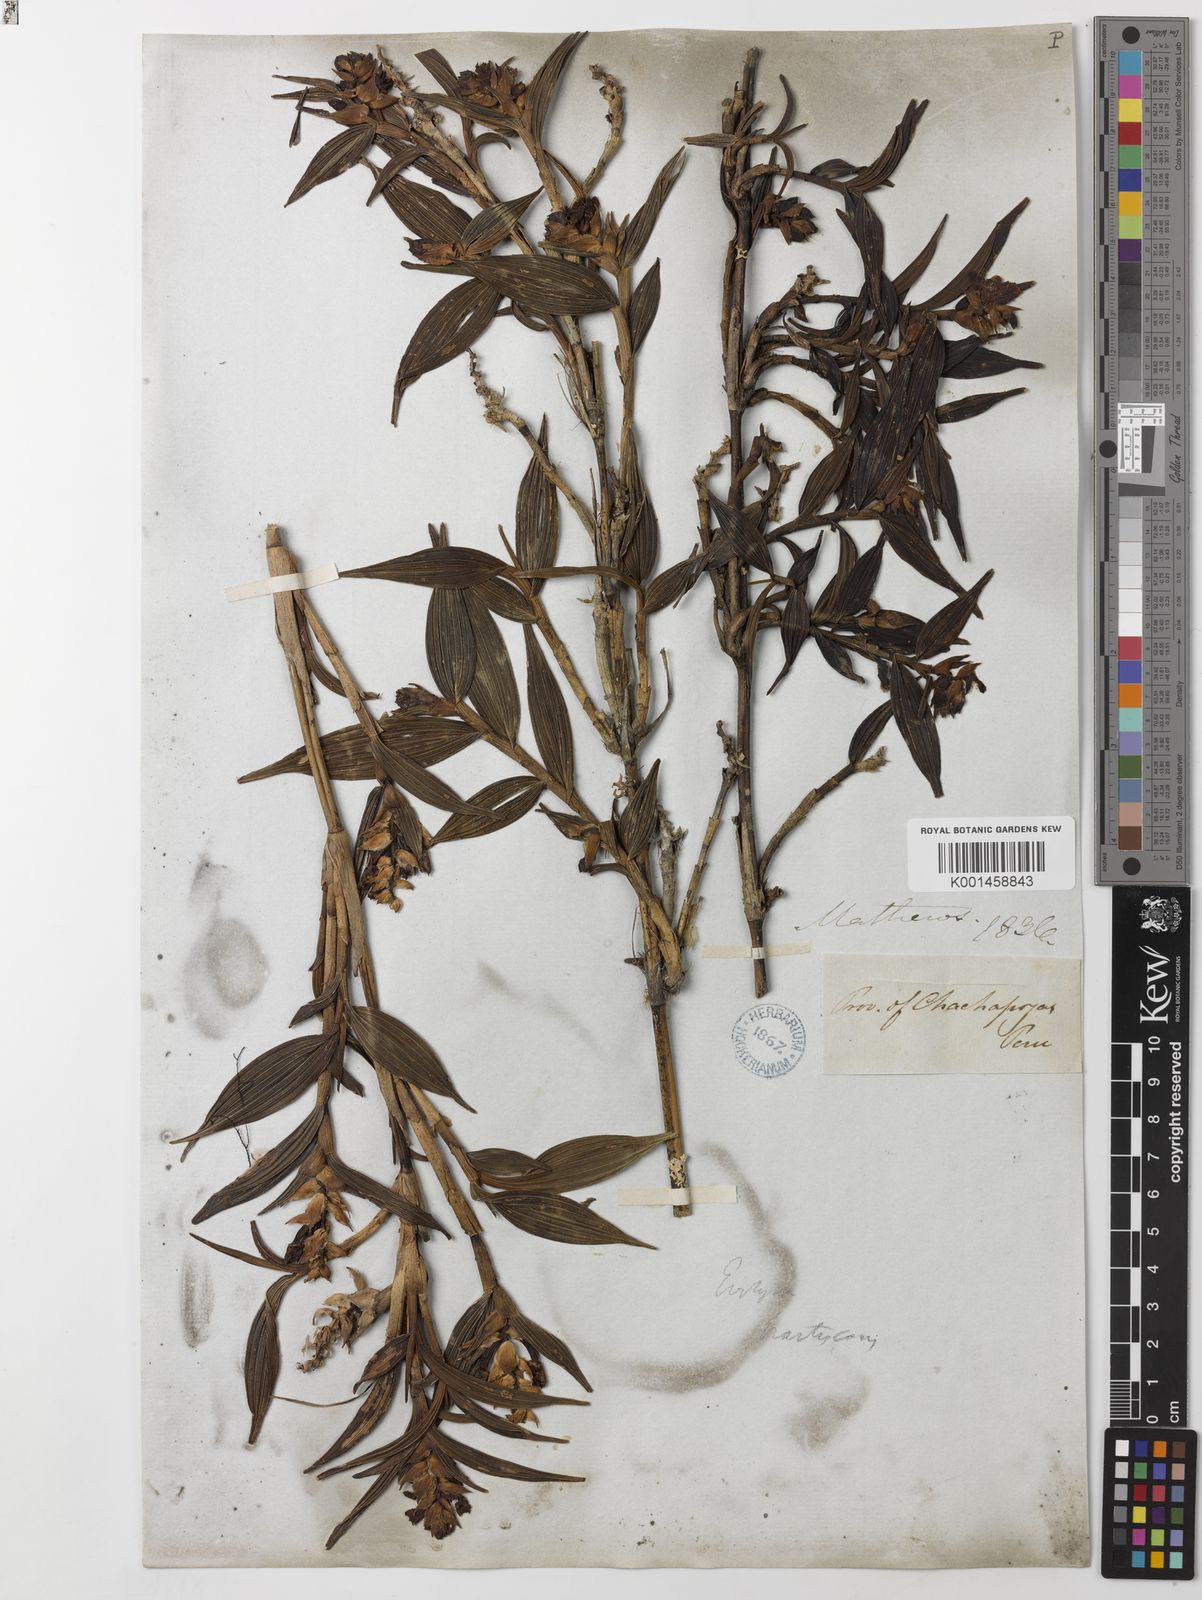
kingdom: Plantae
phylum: Tracheophyta
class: Liliopsida
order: Asparagales
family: Orchidaceae
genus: Elleanthus
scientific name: Elleanthus
